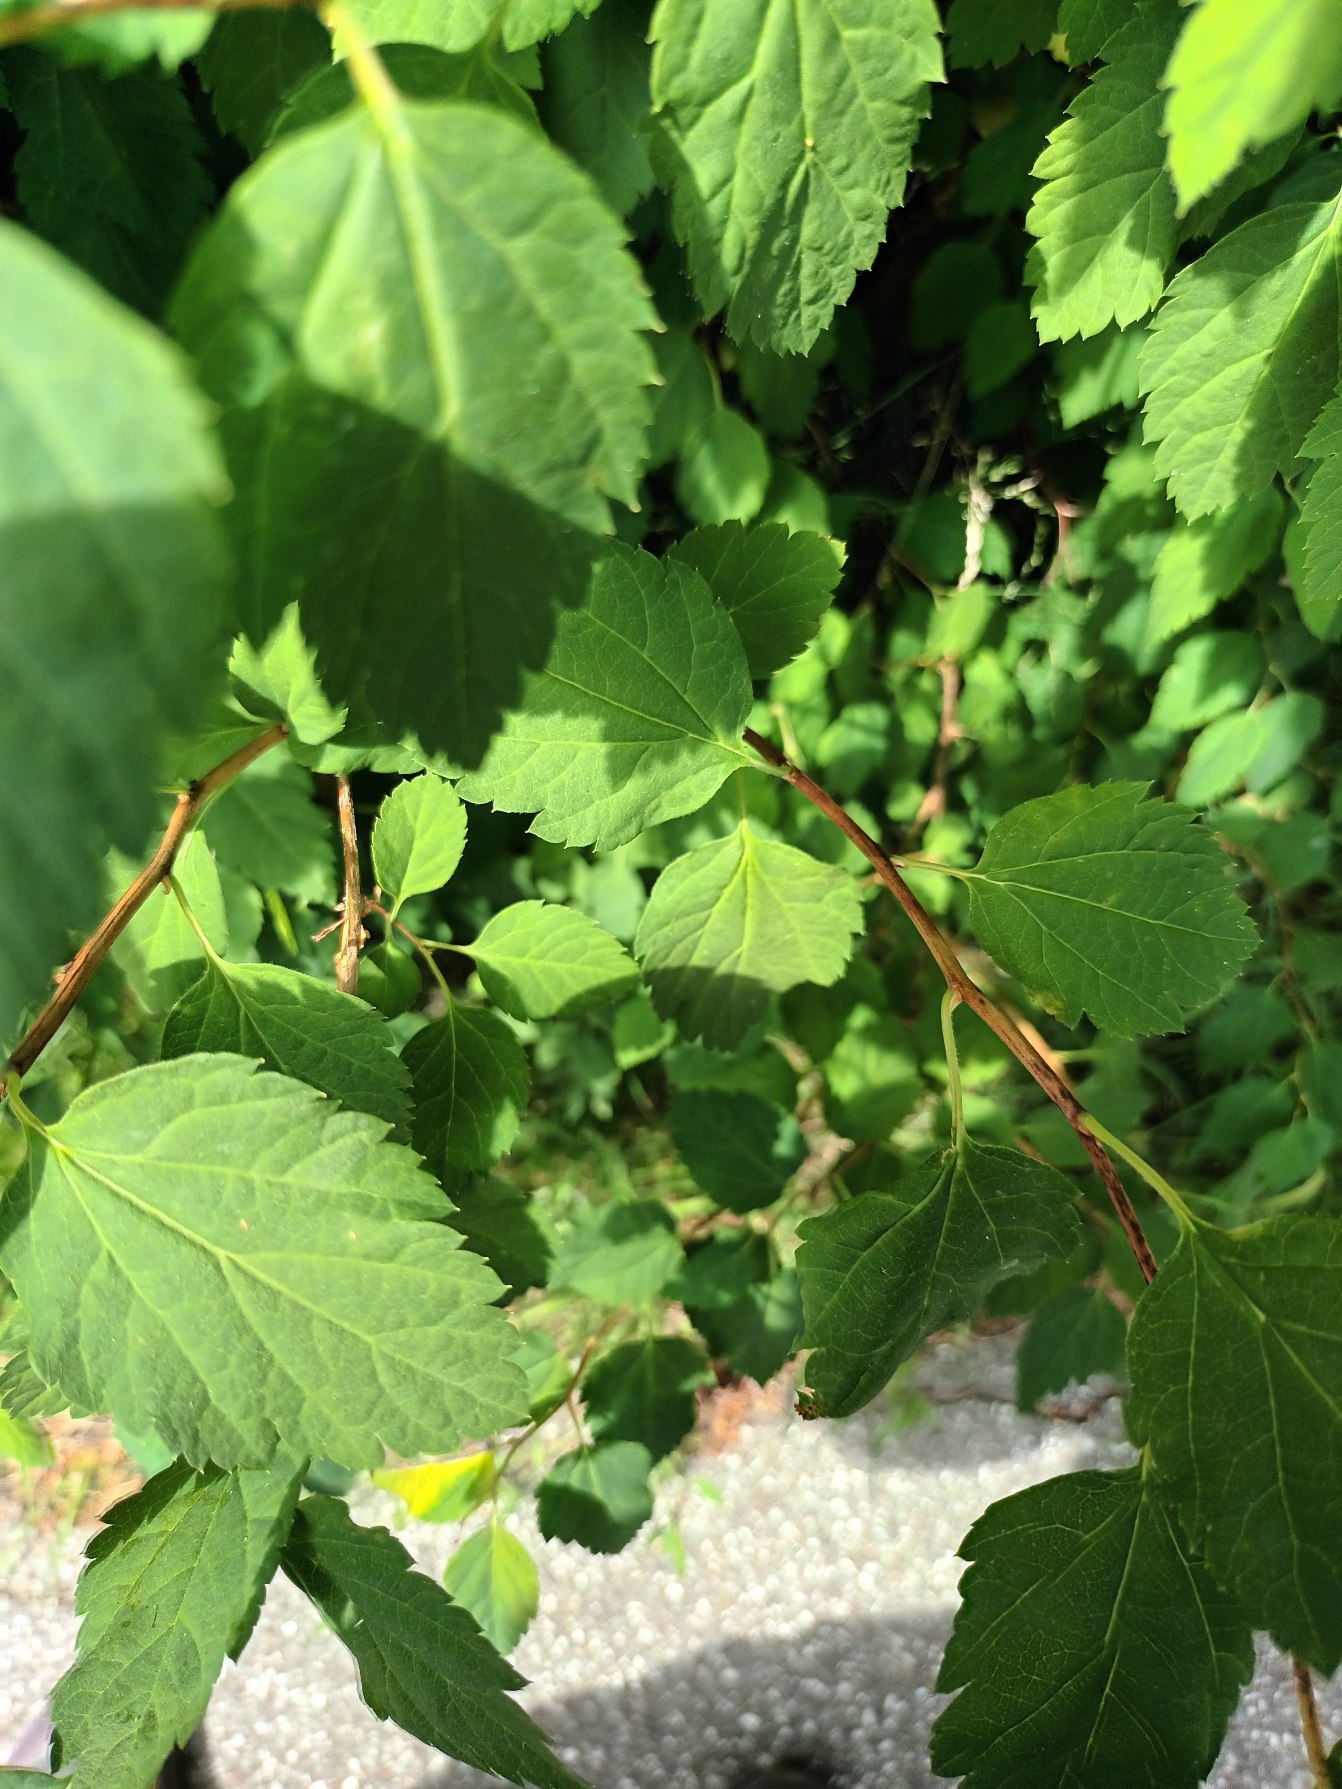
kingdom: Plantae
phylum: Tracheophyta
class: Magnoliopsida
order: Rosales
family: Rosaceae
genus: Spiraea
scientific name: Spiraea vanhouttei
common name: Buket-spiræa
